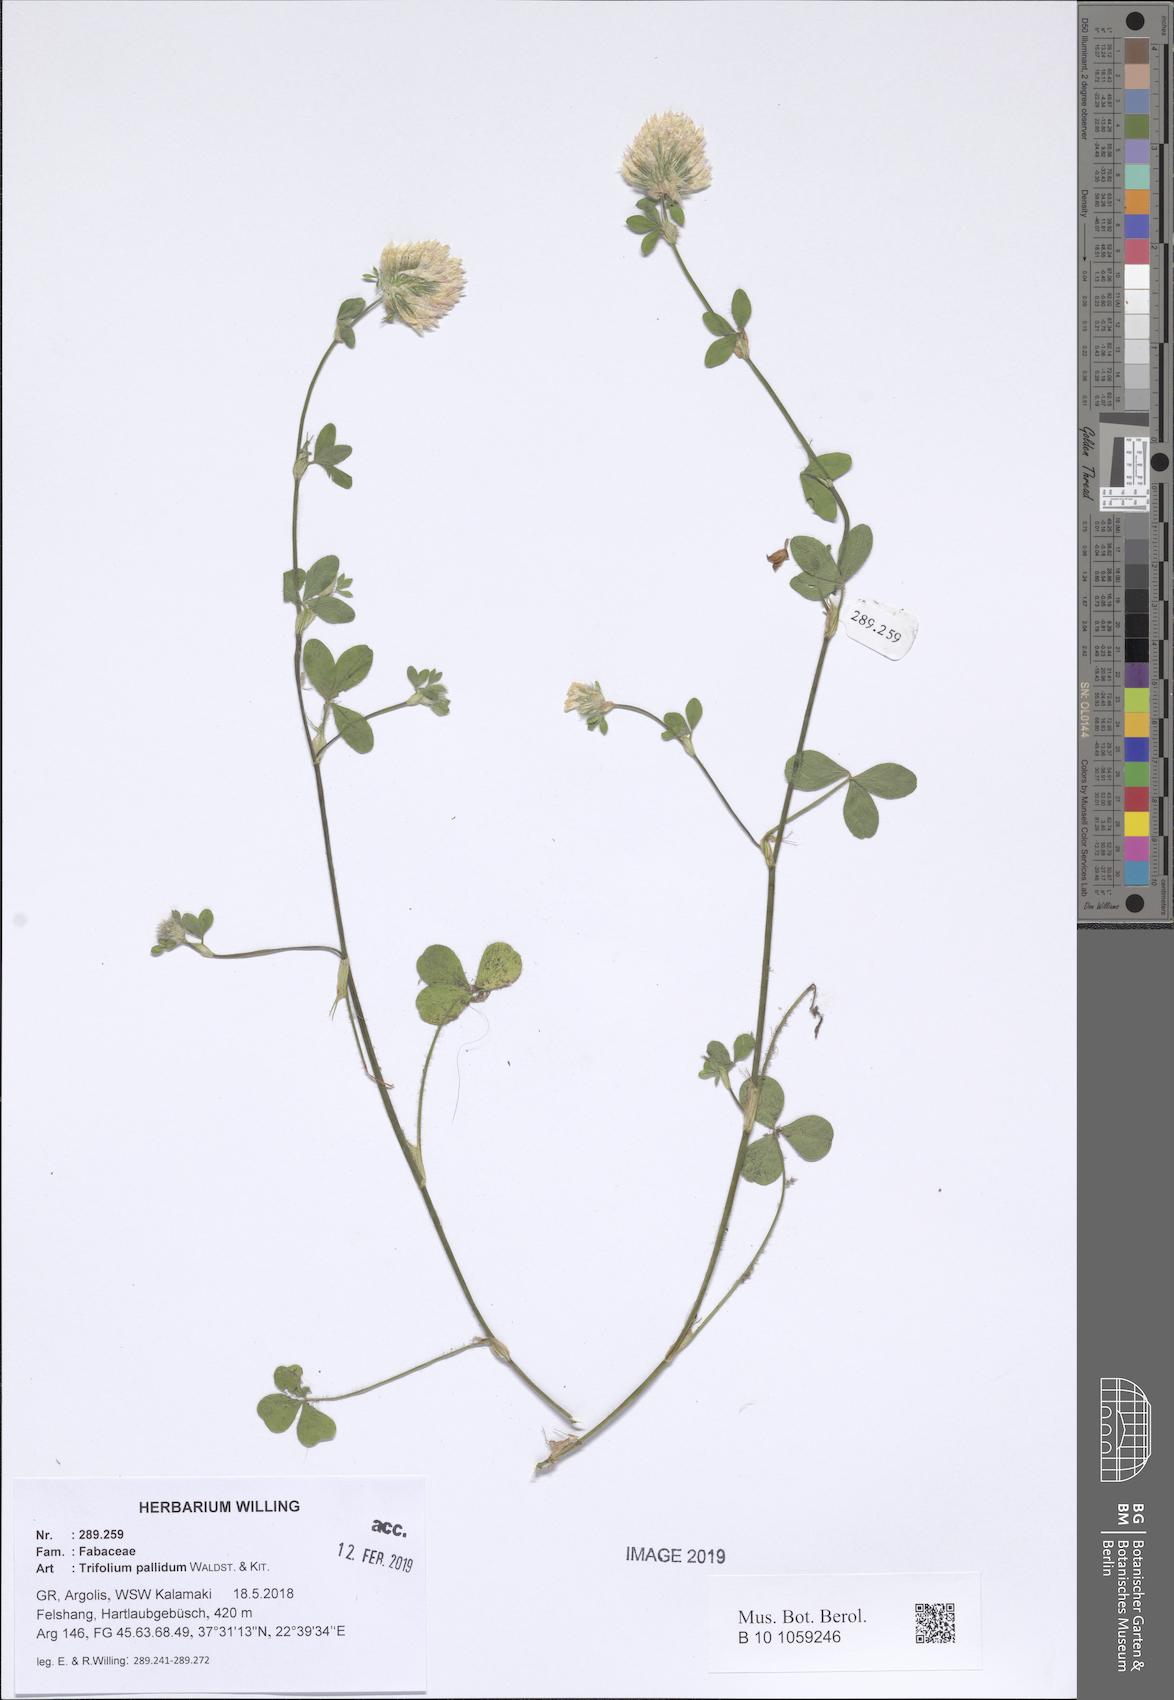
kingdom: Plantae
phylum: Tracheophyta
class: Magnoliopsida
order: Fabales
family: Fabaceae
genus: Trifolium
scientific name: Trifolium pallidum
